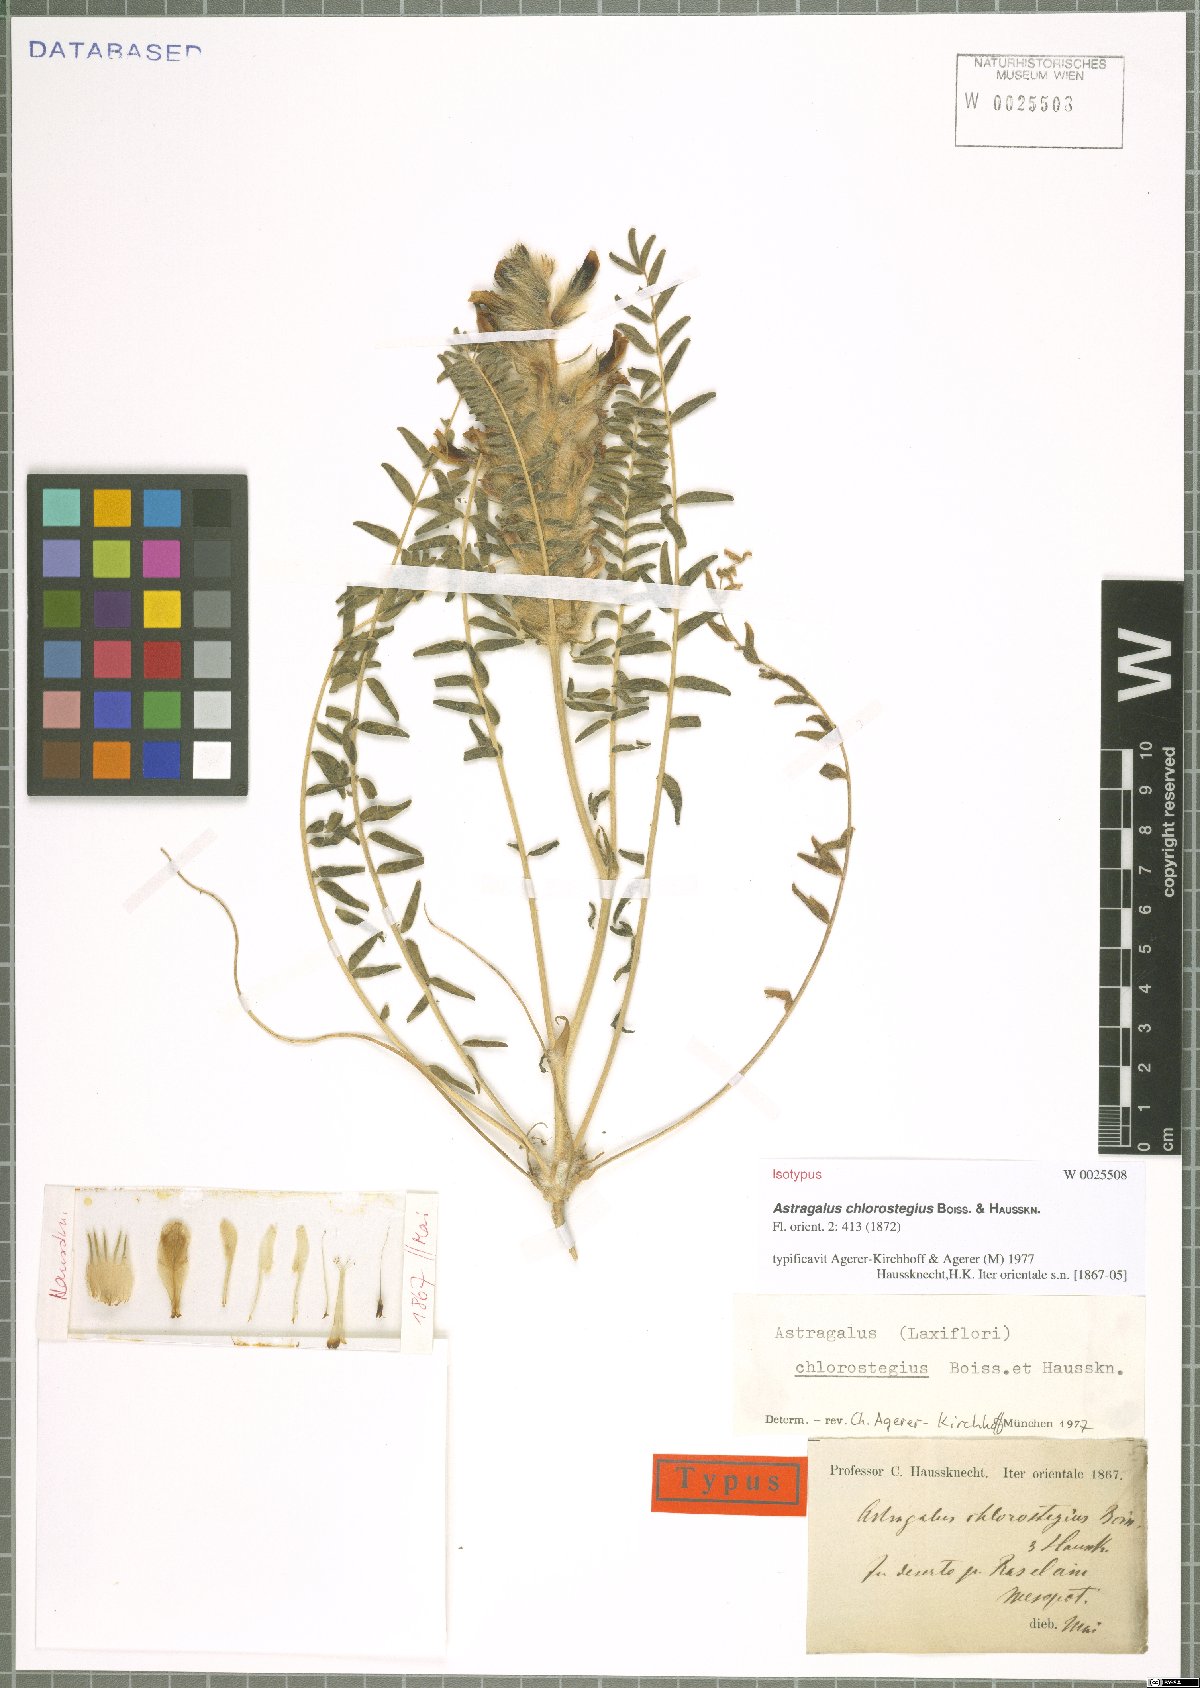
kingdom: Plantae
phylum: Tracheophyta
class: Magnoliopsida
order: Fabales
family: Fabaceae
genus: Astragalus
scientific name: Astragalus chlorostegius
